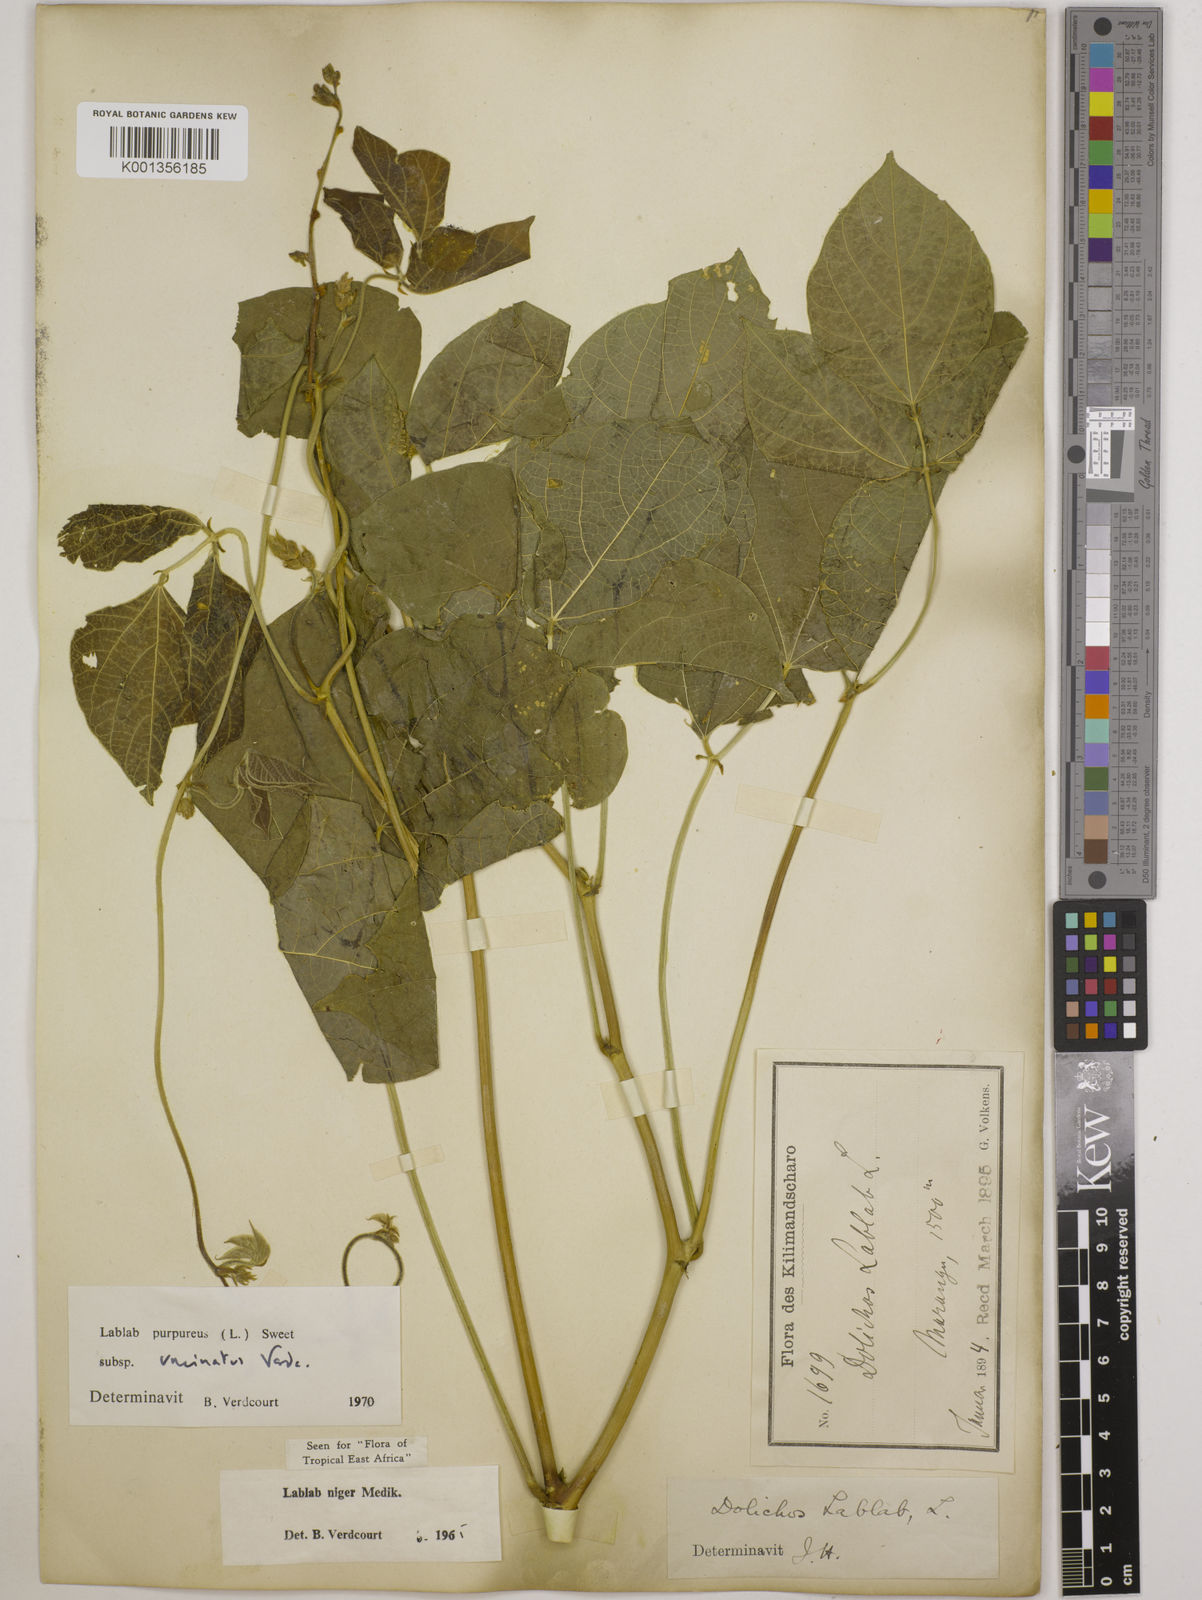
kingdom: Plantae
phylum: Tracheophyta
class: Magnoliopsida
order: Fabales
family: Fabaceae
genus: Lablab
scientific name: Lablab purpureus
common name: Lablab-bean
